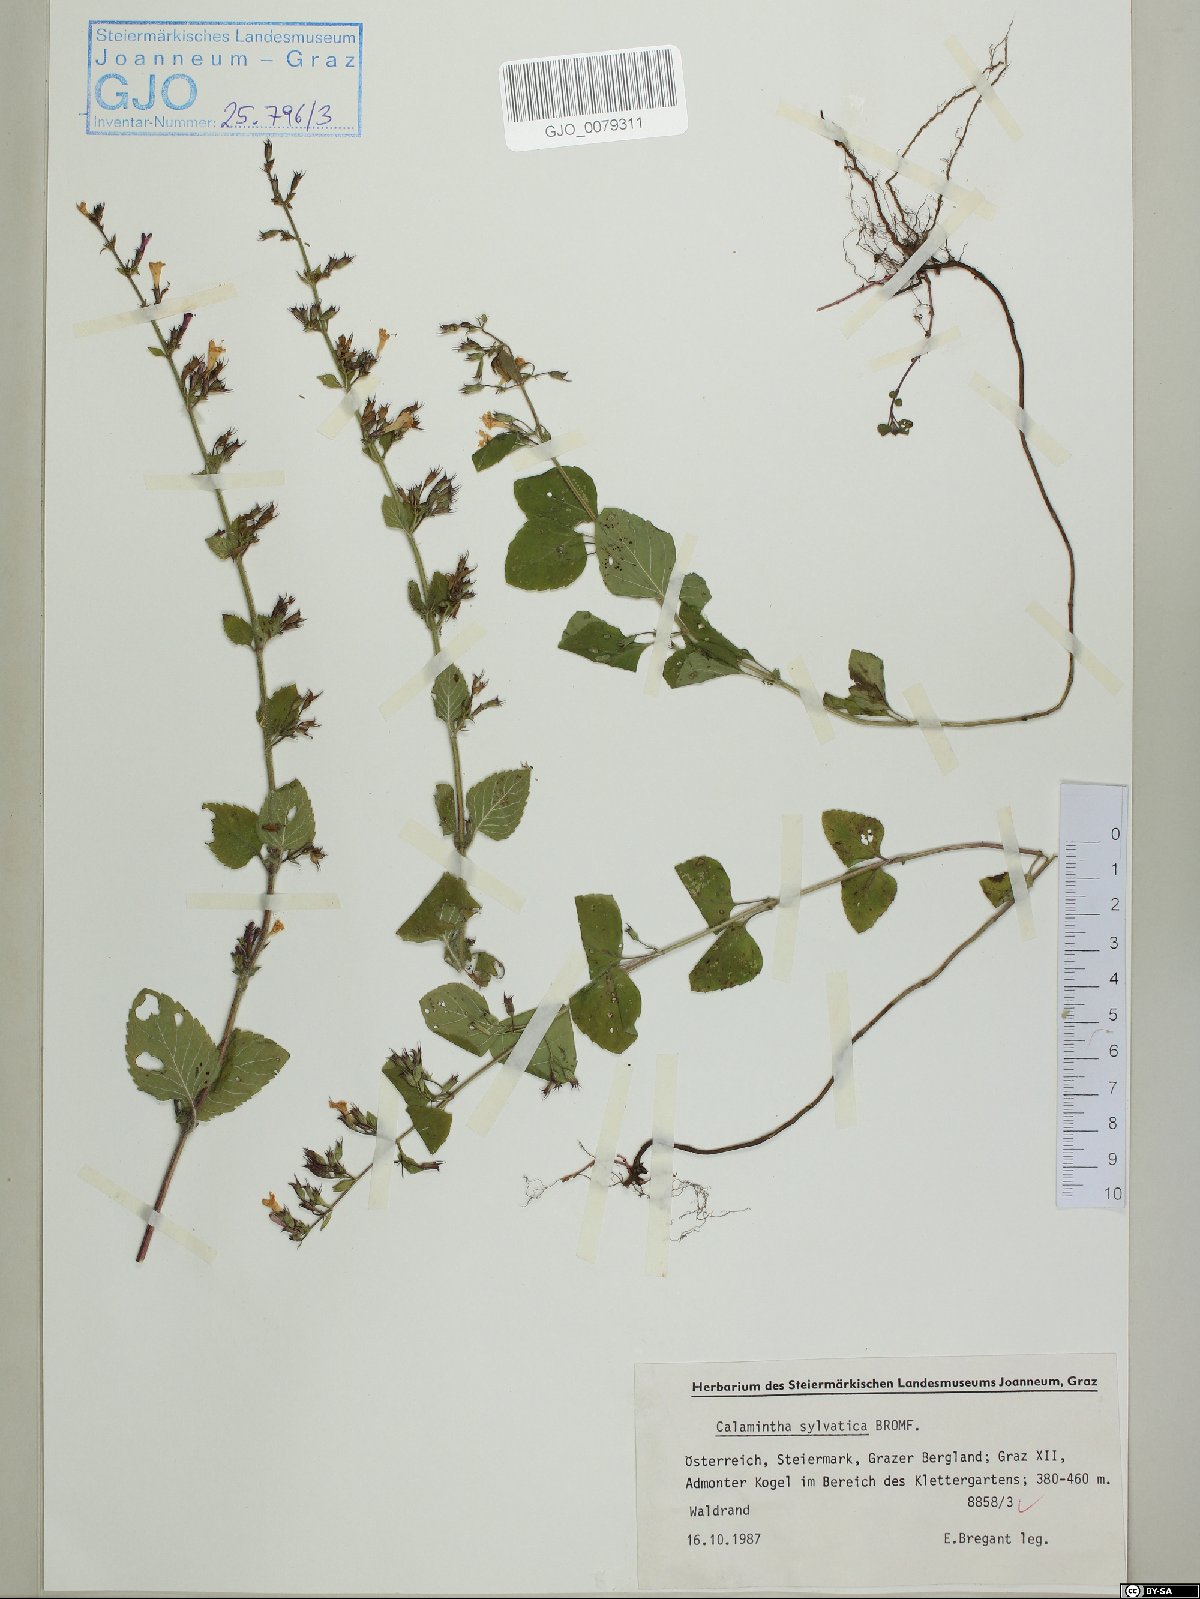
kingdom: Plantae
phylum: Tracheophyta
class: Magnoliopsida
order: Lamiales
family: Lamiaceae
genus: Clinopodium
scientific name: Clinopodium menthifolium
